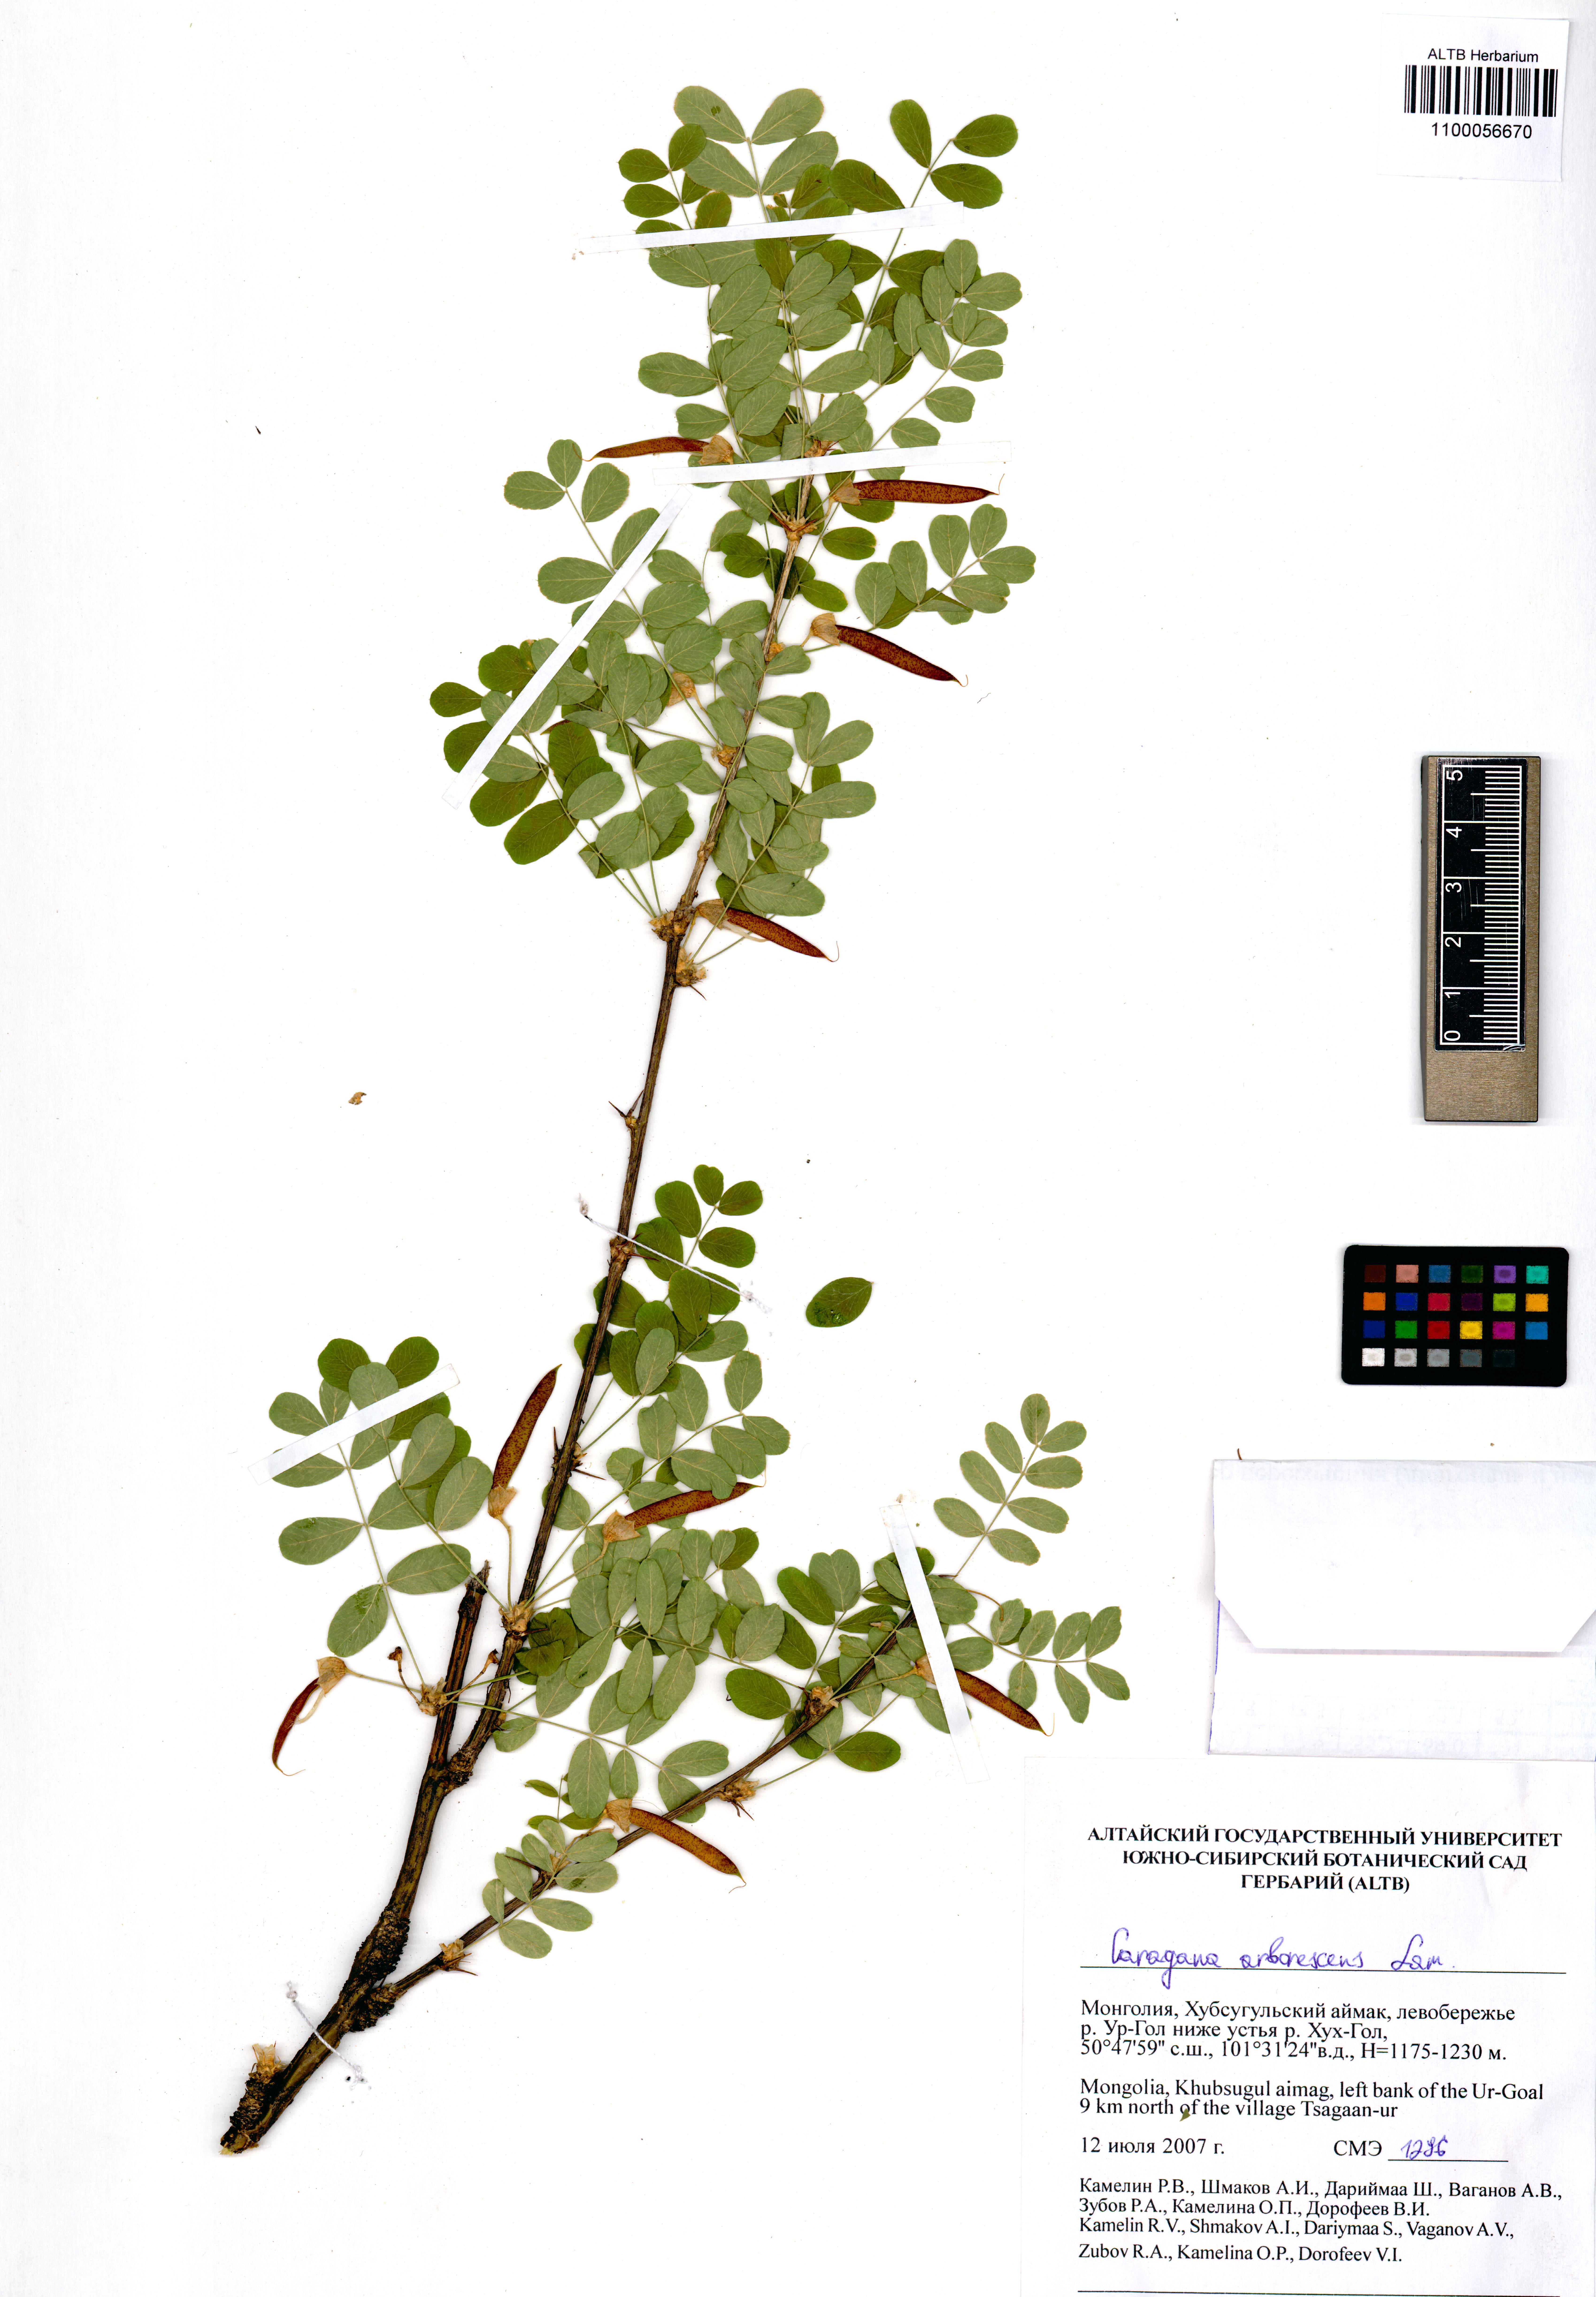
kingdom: Plantae
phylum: Tracheophyta
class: Magnoliopsida
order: Fabales
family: Fabaceae
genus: Caragana
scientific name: Caragana arborescens
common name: Siberian peashrub
